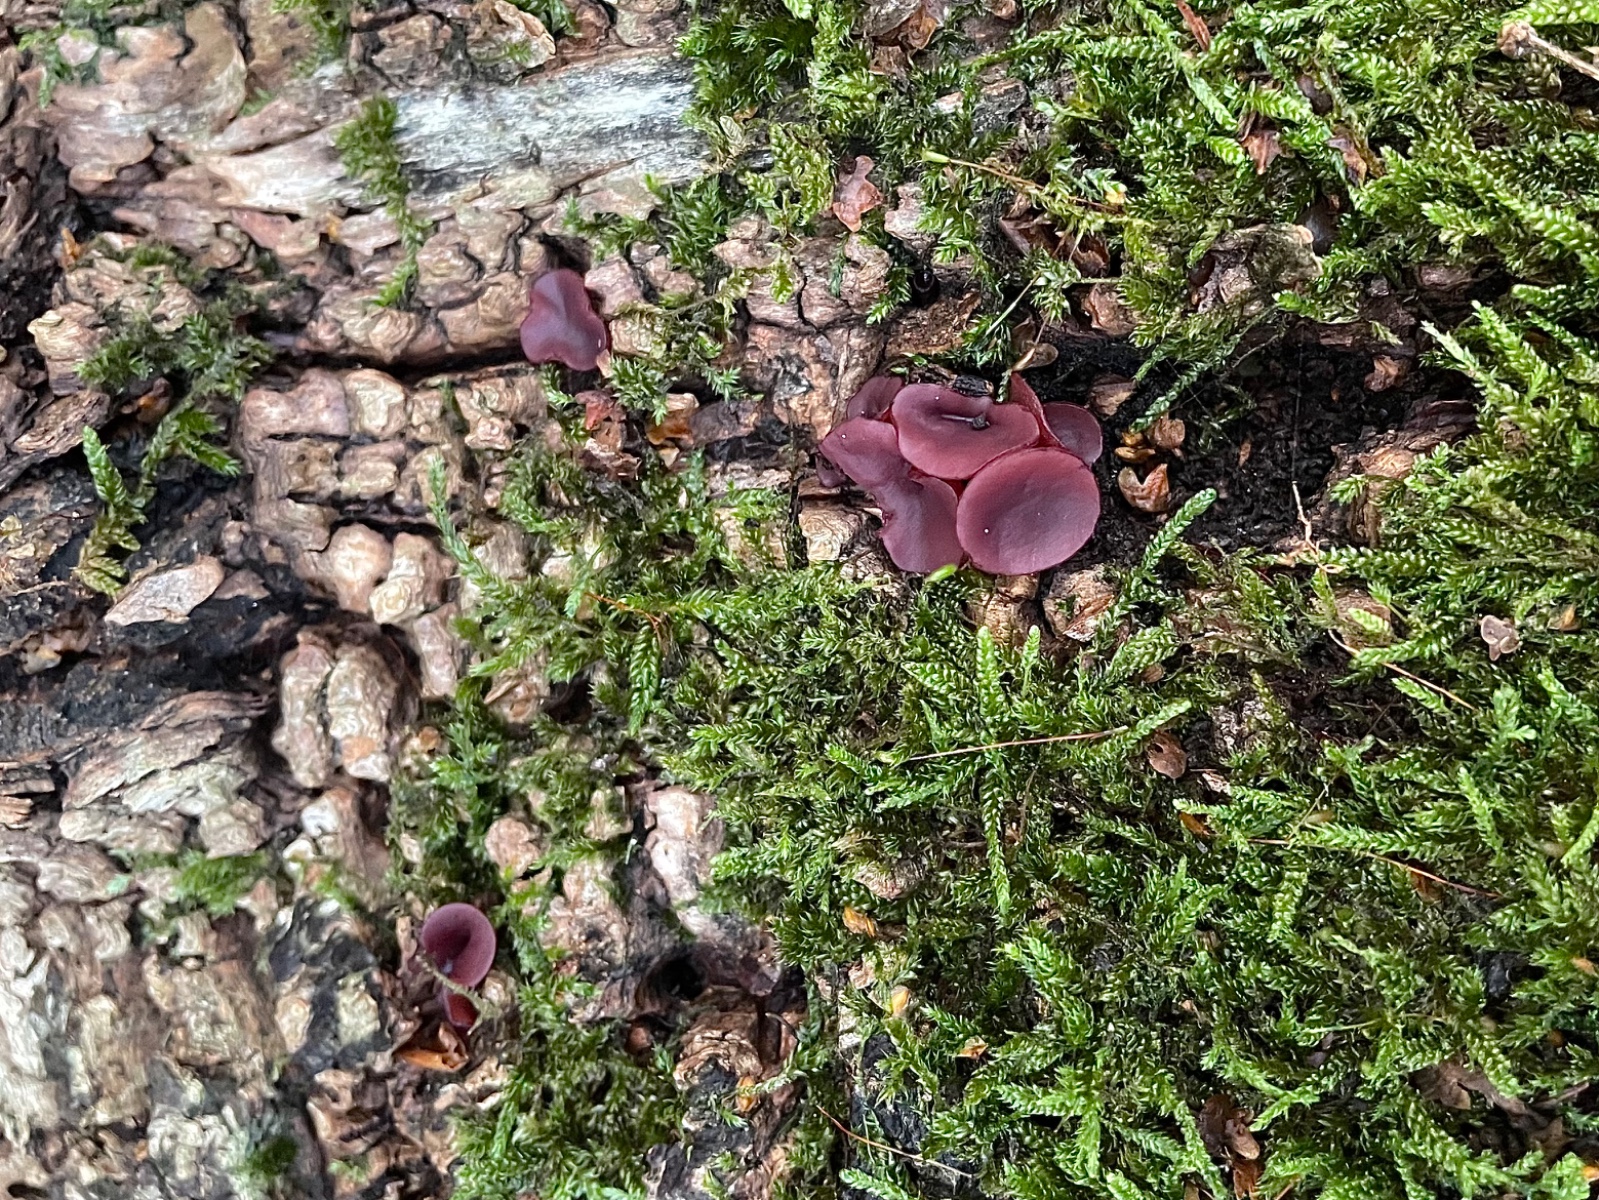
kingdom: Fungi
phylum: Ascomycota
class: Leotiomycetes
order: Helotiales
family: Gelatinodiscaceae
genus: Ascocoryne
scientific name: Ascocoryne cylichnium
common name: stor sejskive
